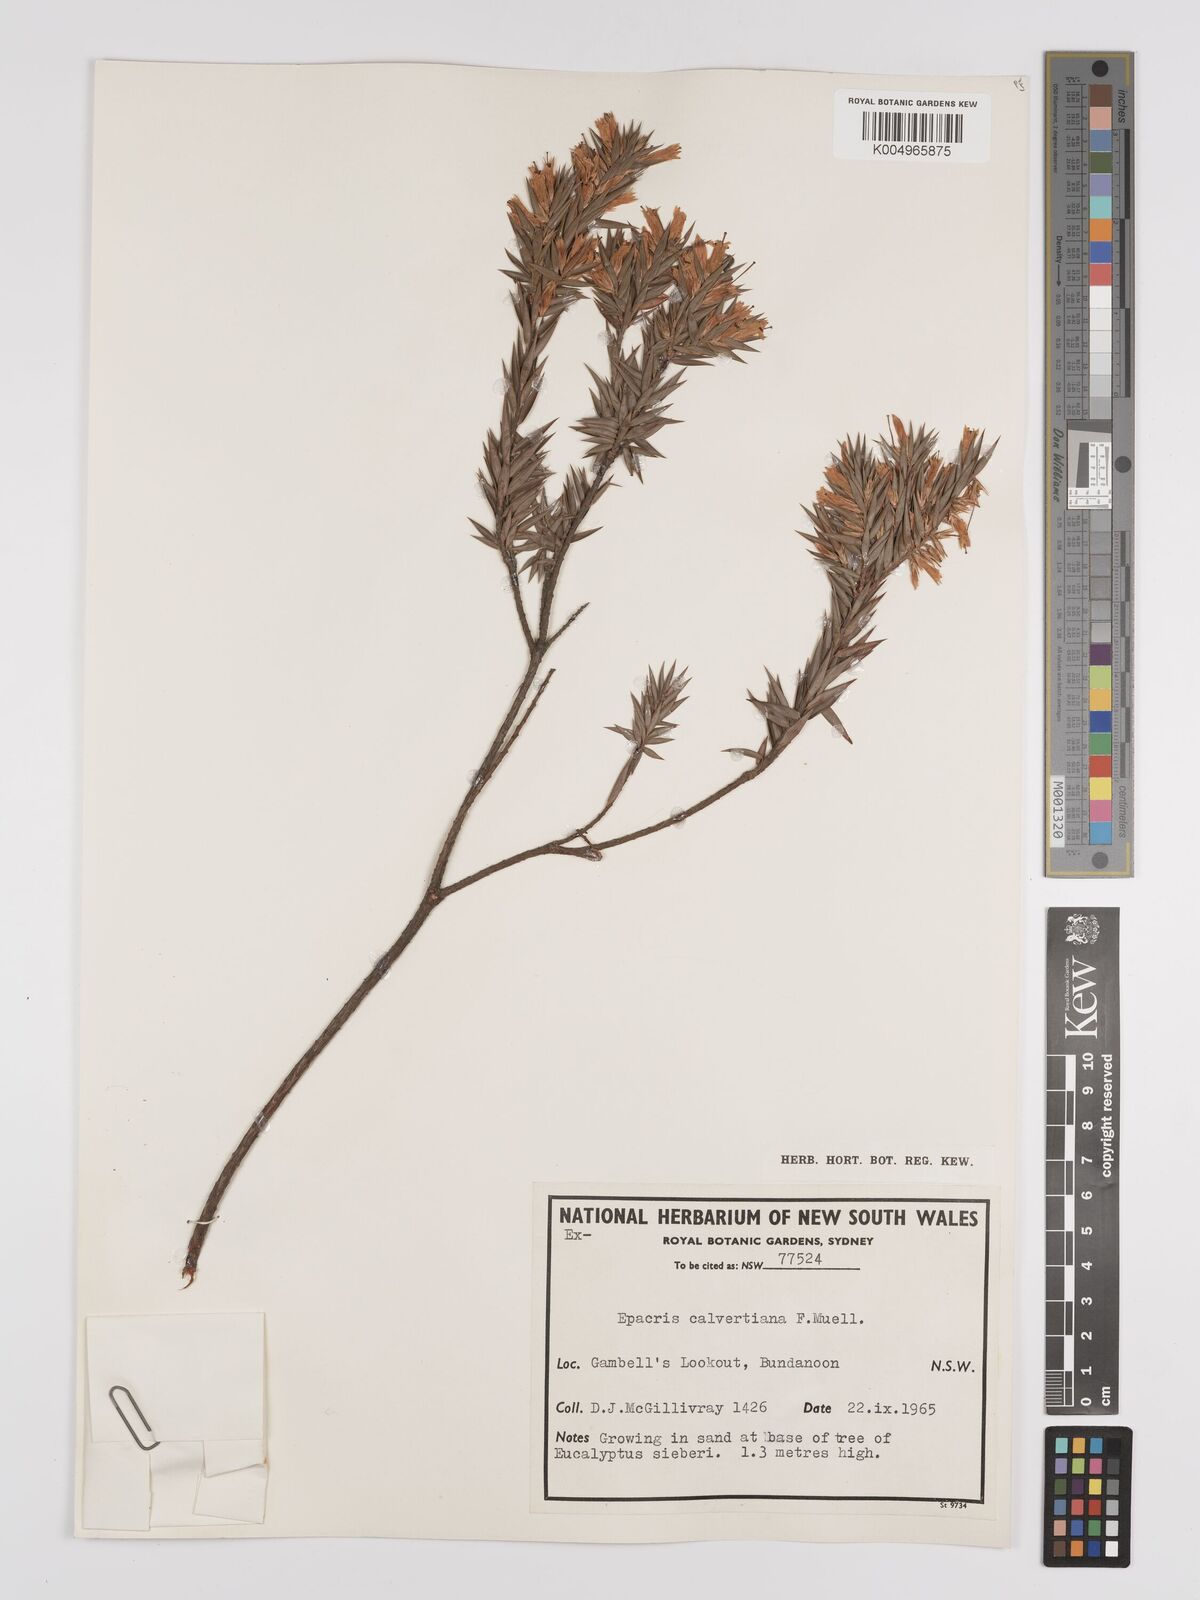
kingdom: Plantae
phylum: Tracheophyta
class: Magnoliopsida
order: Ericales
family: Ericaceae
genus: Epacris
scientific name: Epacris calvertiana
